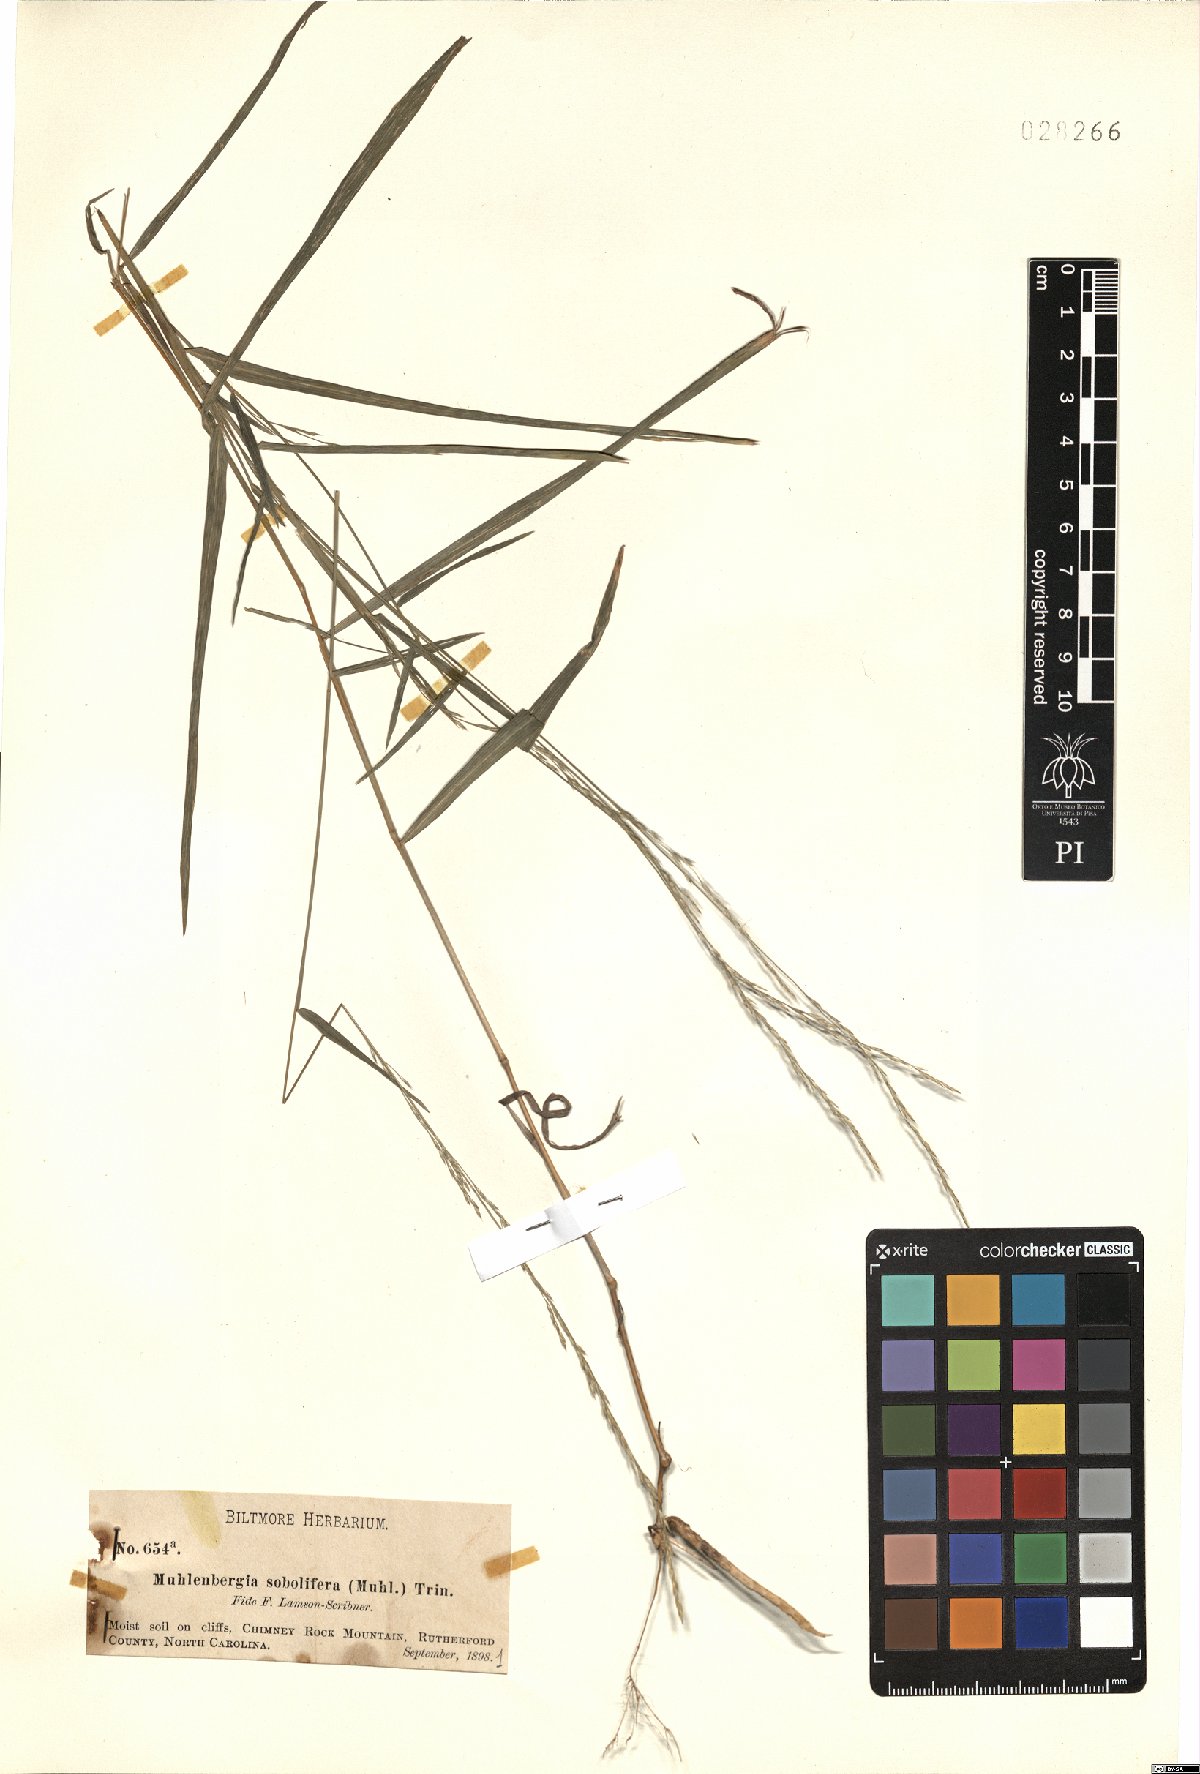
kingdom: Plantae
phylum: Tracheophyta
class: Liliopsida
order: Poales
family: Poaceae
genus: Muhlenbergia
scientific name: Muhlenbergia sobolifera
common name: Creeping muhly
